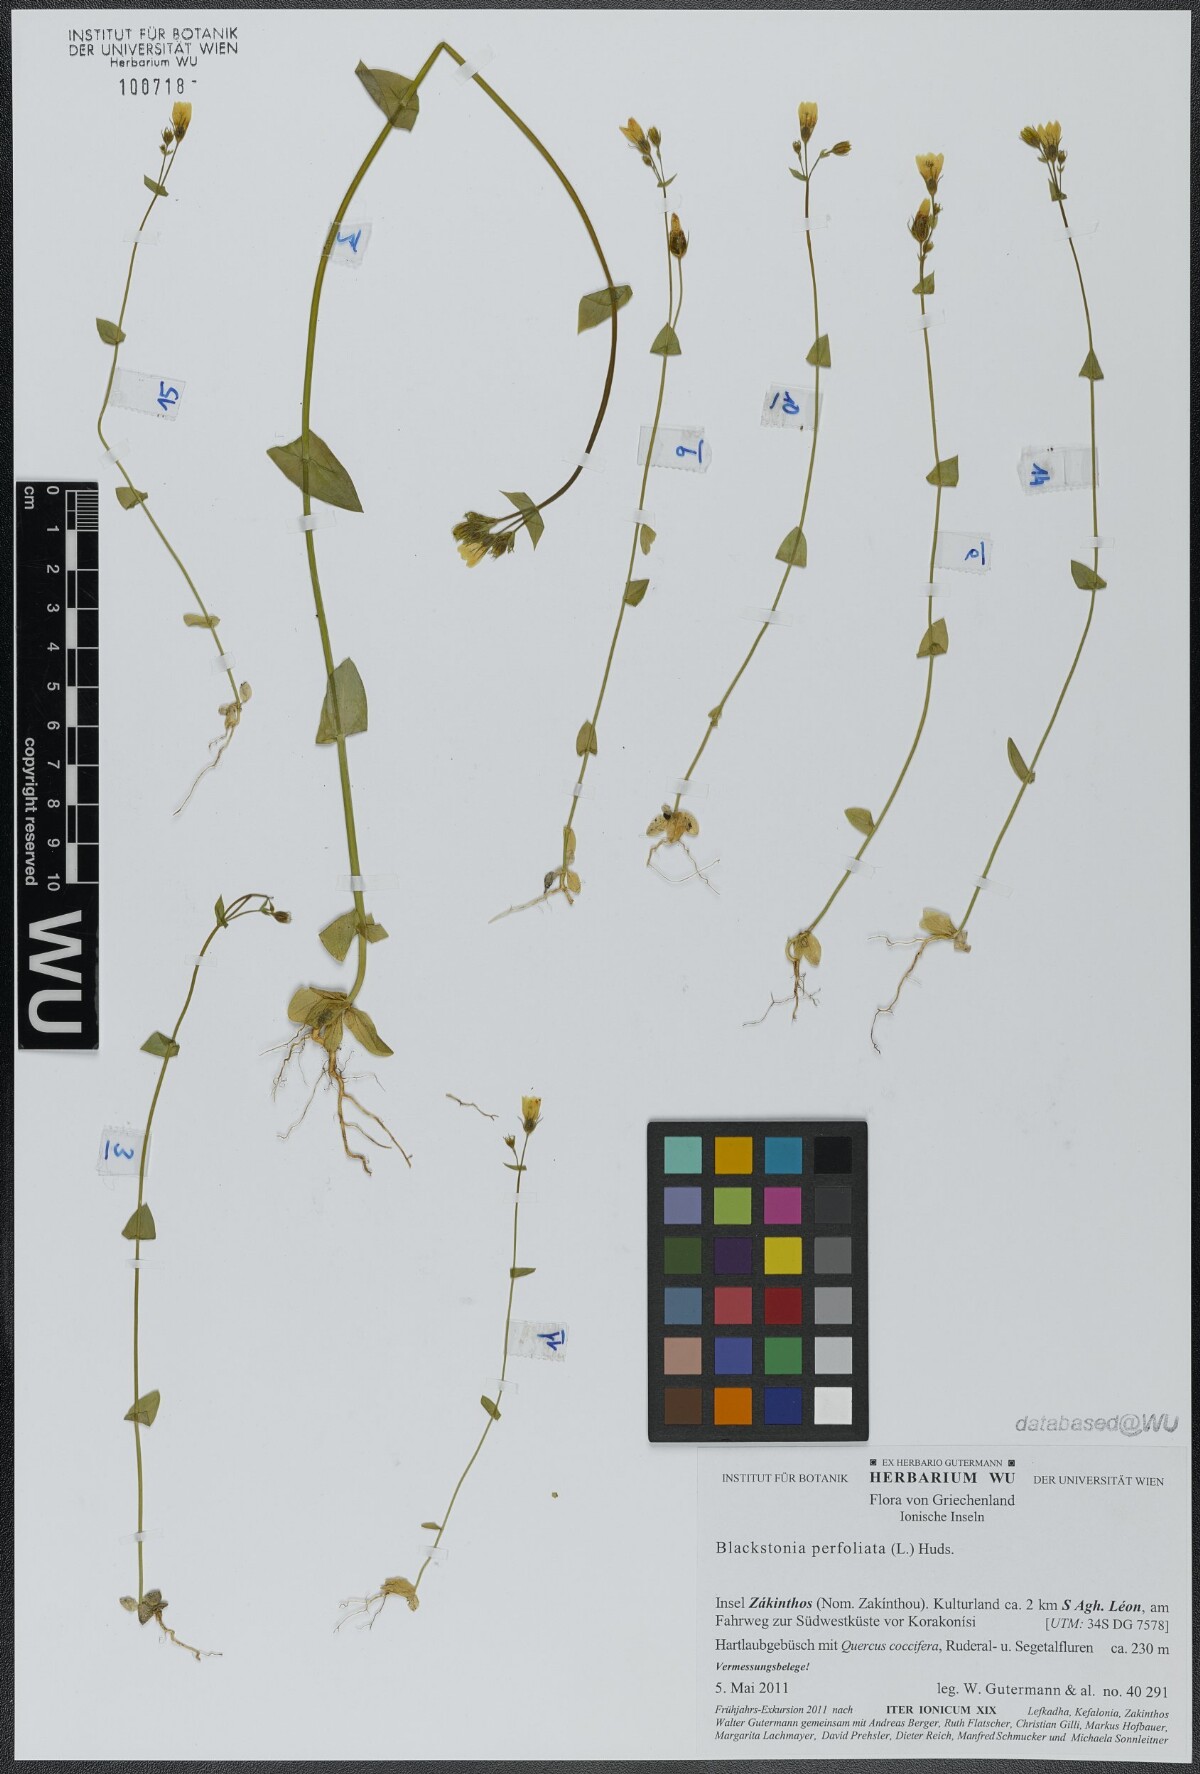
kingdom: Plantae
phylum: Tracheophyta
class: Magnoliopsida
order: Gentianales
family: Gentianaceae
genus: Blackstonia
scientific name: Blackstonia perfoliata
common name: Yellow-wort
